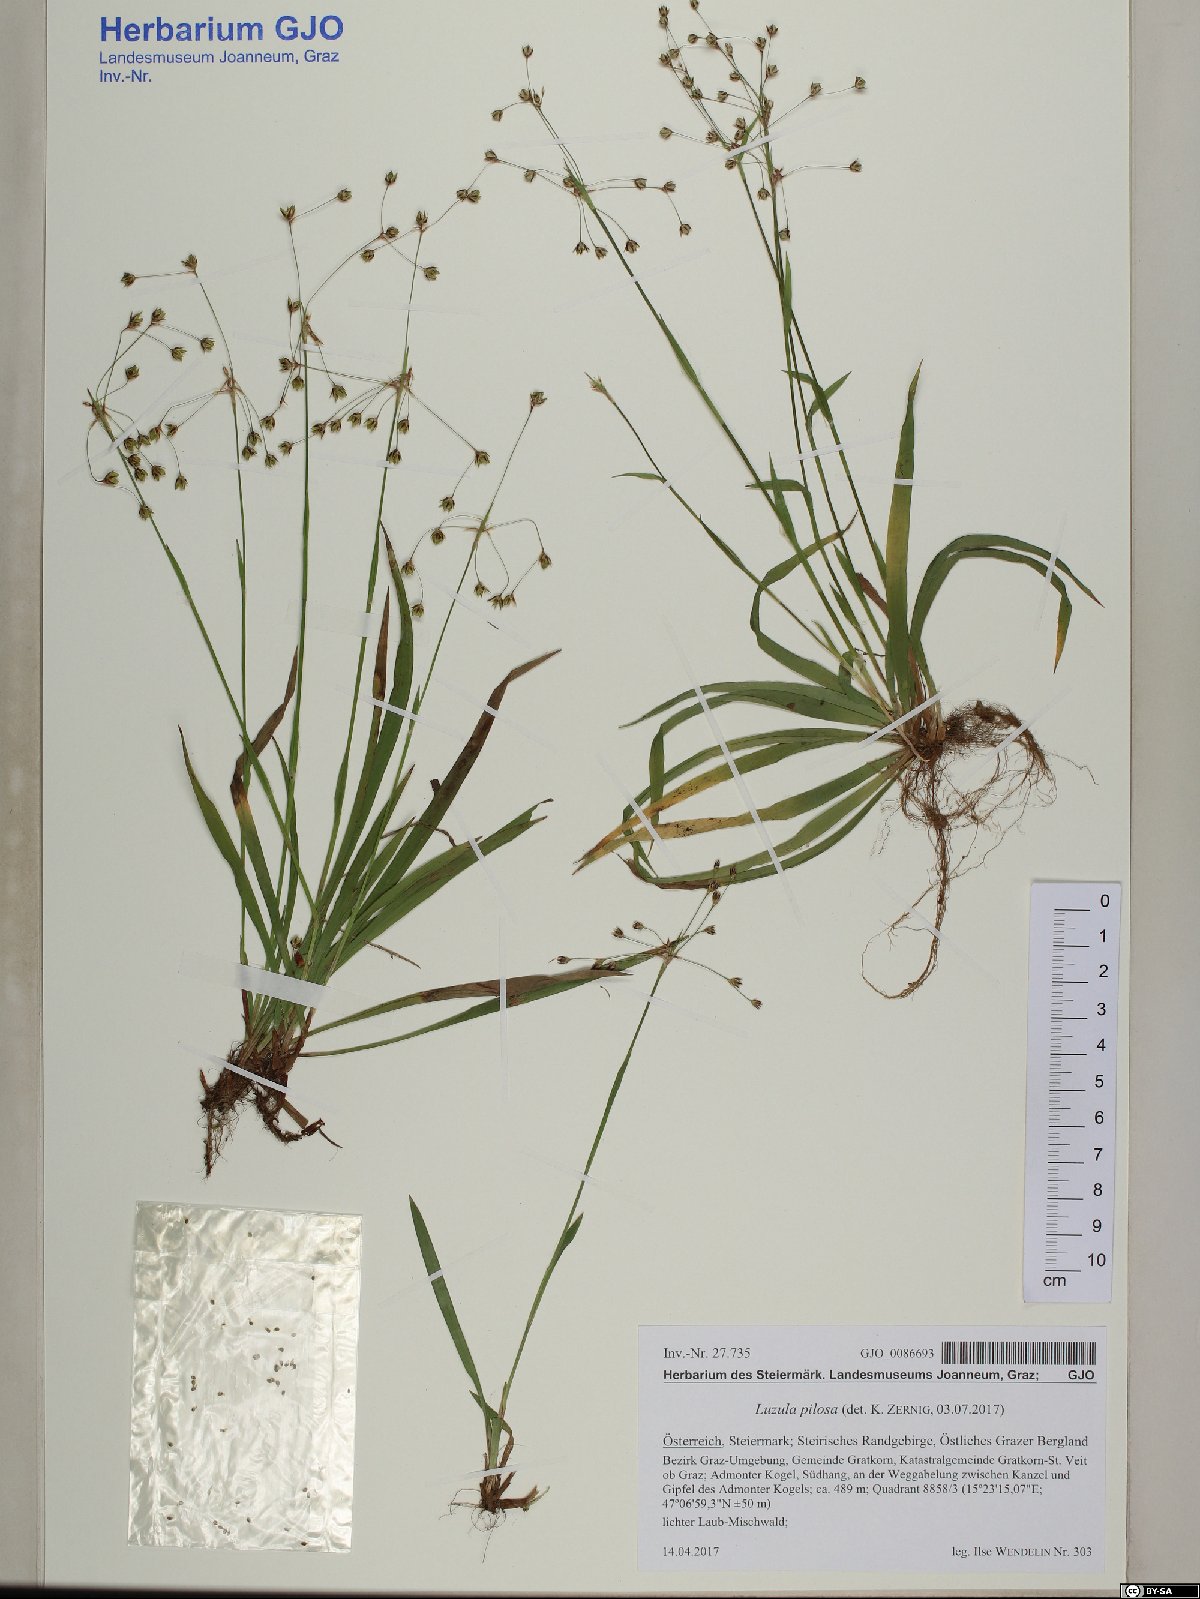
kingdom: Plantae
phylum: Tracheophyta
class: Liliopsida
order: Poales
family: Juncaceae
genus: Luzula
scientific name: Luzula pilosa
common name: Hairy wood-rush
